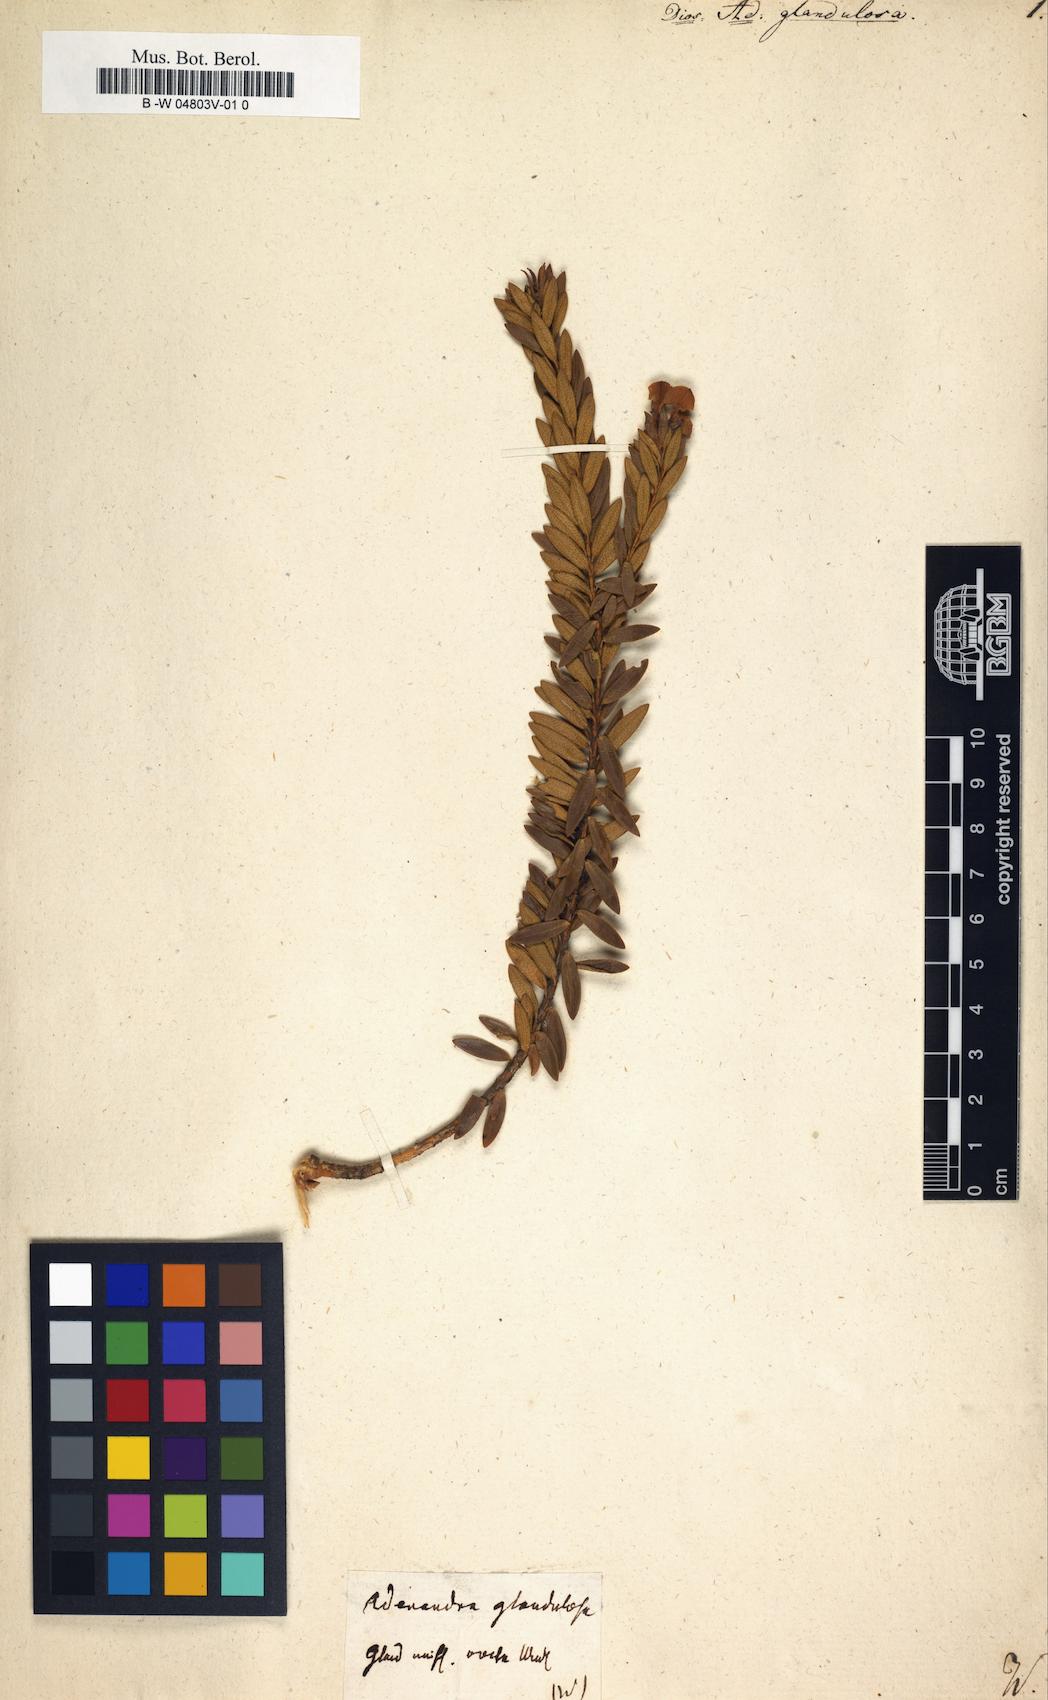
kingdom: Plantae
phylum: Tracheophyta
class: Magnoliopsida
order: Sapindales
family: Rutaceae
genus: Agathosma
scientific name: Agathosma
